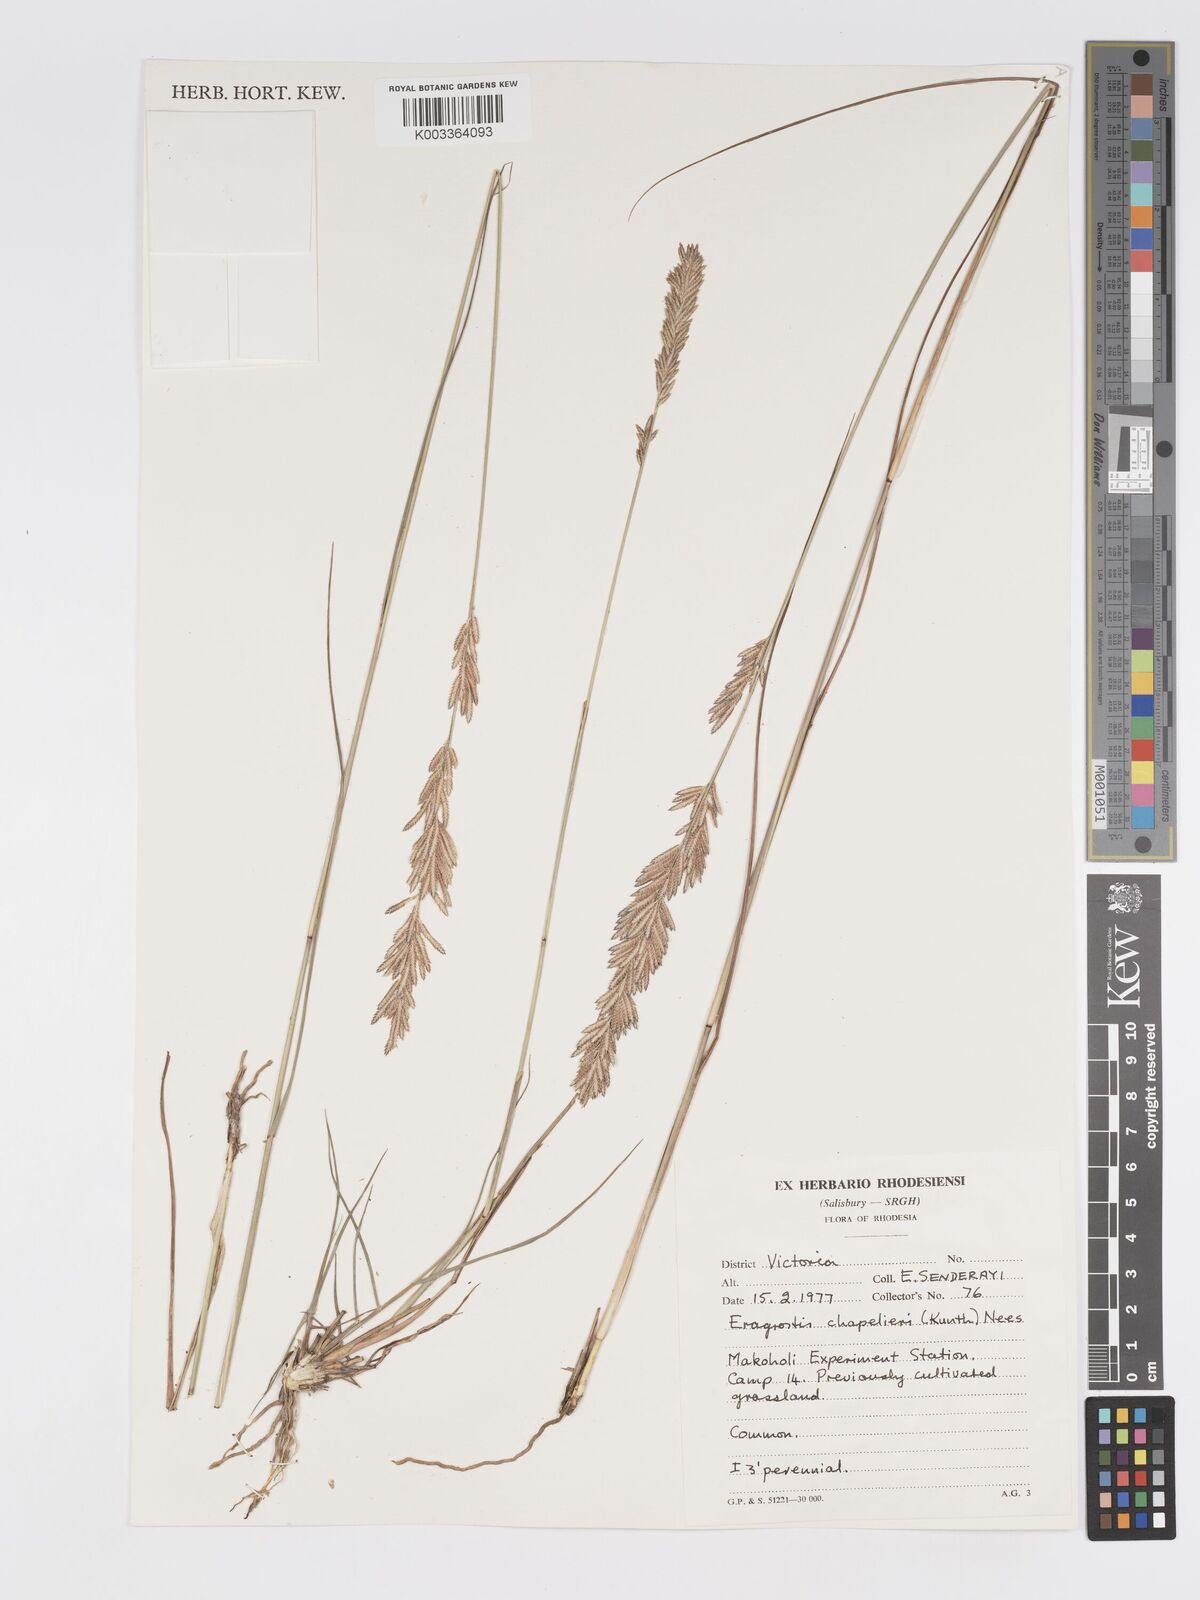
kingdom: Plantae
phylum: Tracheophyta
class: Liliopsida
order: Poales
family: Poaceae
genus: Eragrostis
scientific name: Eragrostis chapelieri
